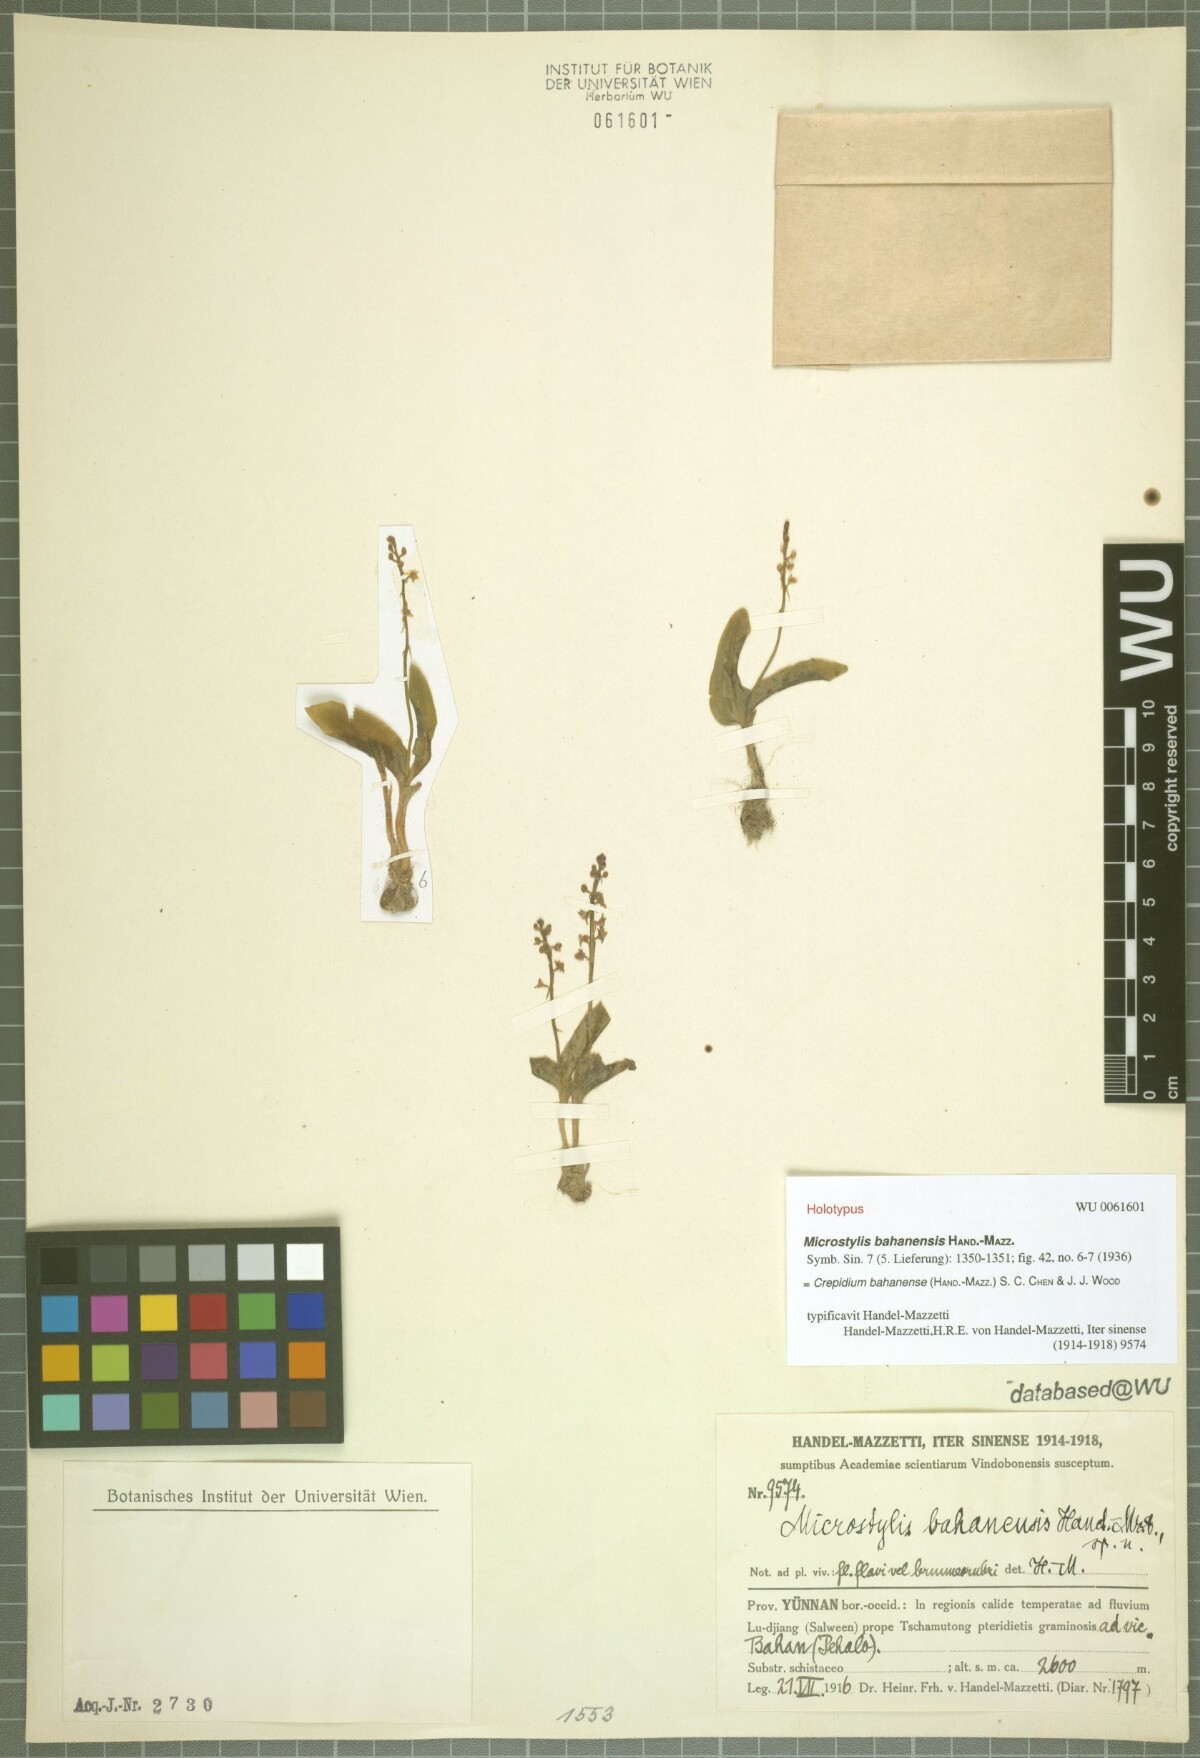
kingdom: Plantae
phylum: Tracheophyta
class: Liliopsida
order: Asparagales
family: Orchidaceae
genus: Crepidium
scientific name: Crepidium bahanense
